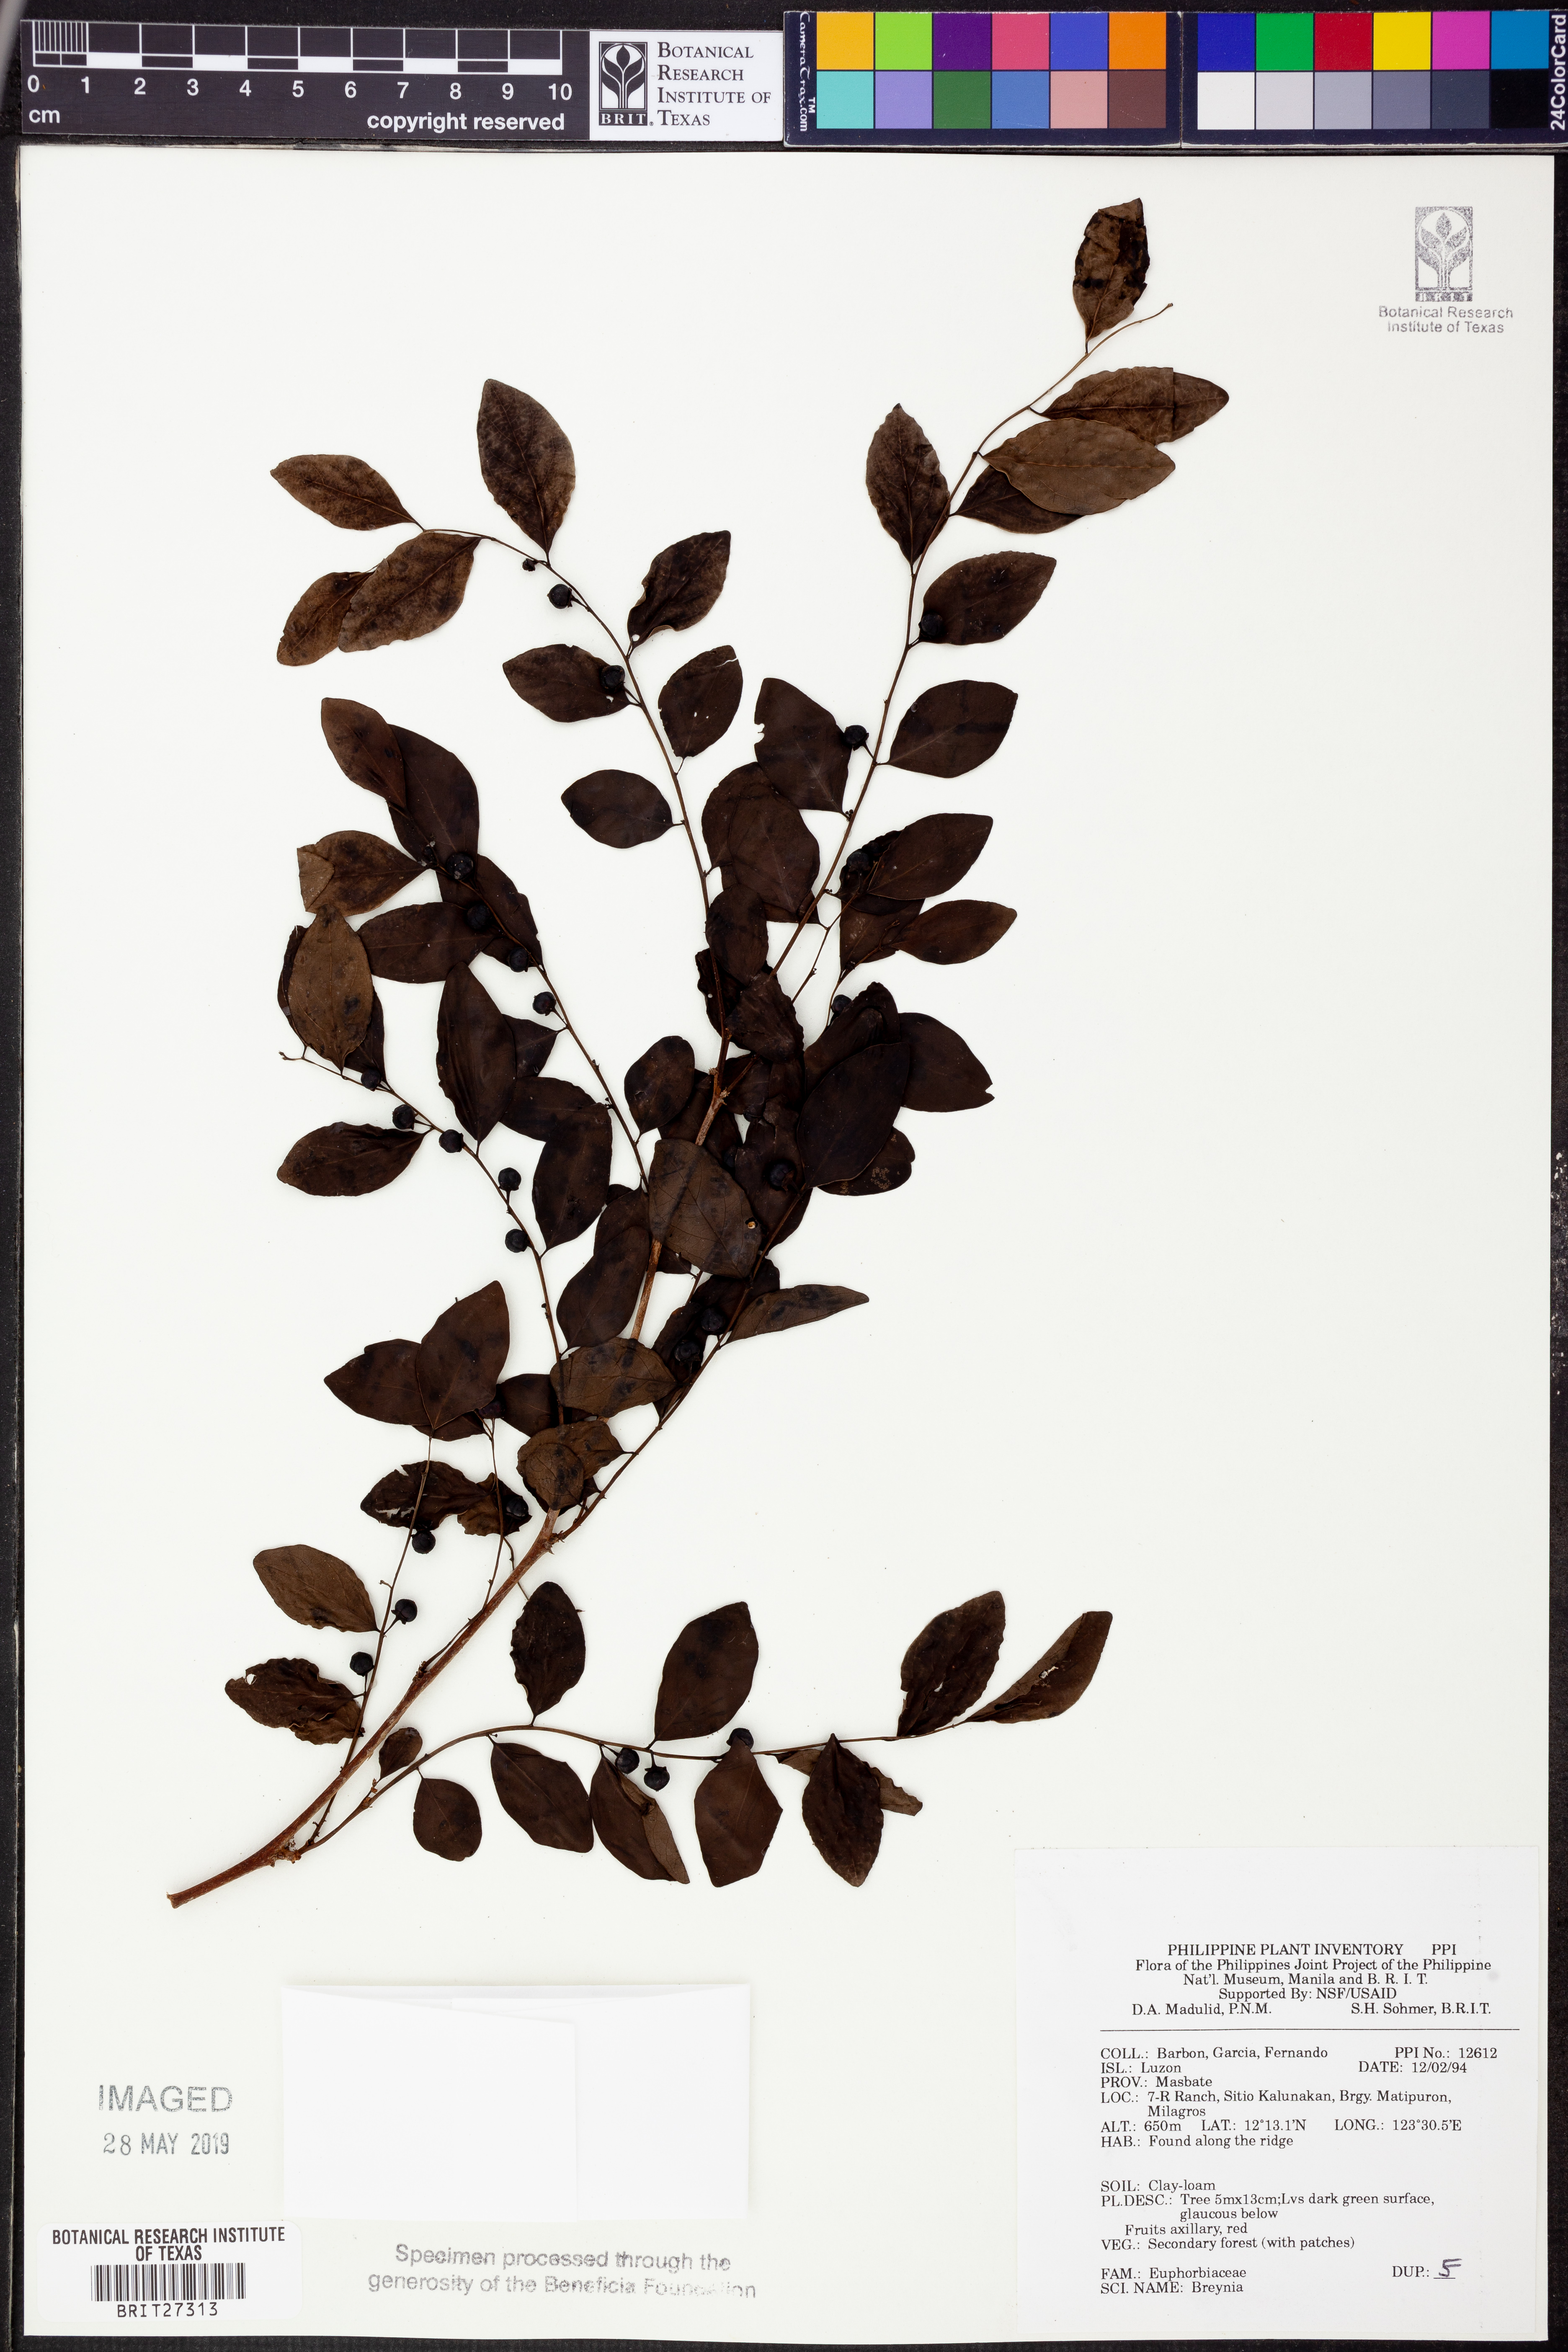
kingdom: Plantae
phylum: Tracheophyta
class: Magnoliopsida
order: Malpighiales
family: Phyllanthaceae
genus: Breynia
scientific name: Breynia
